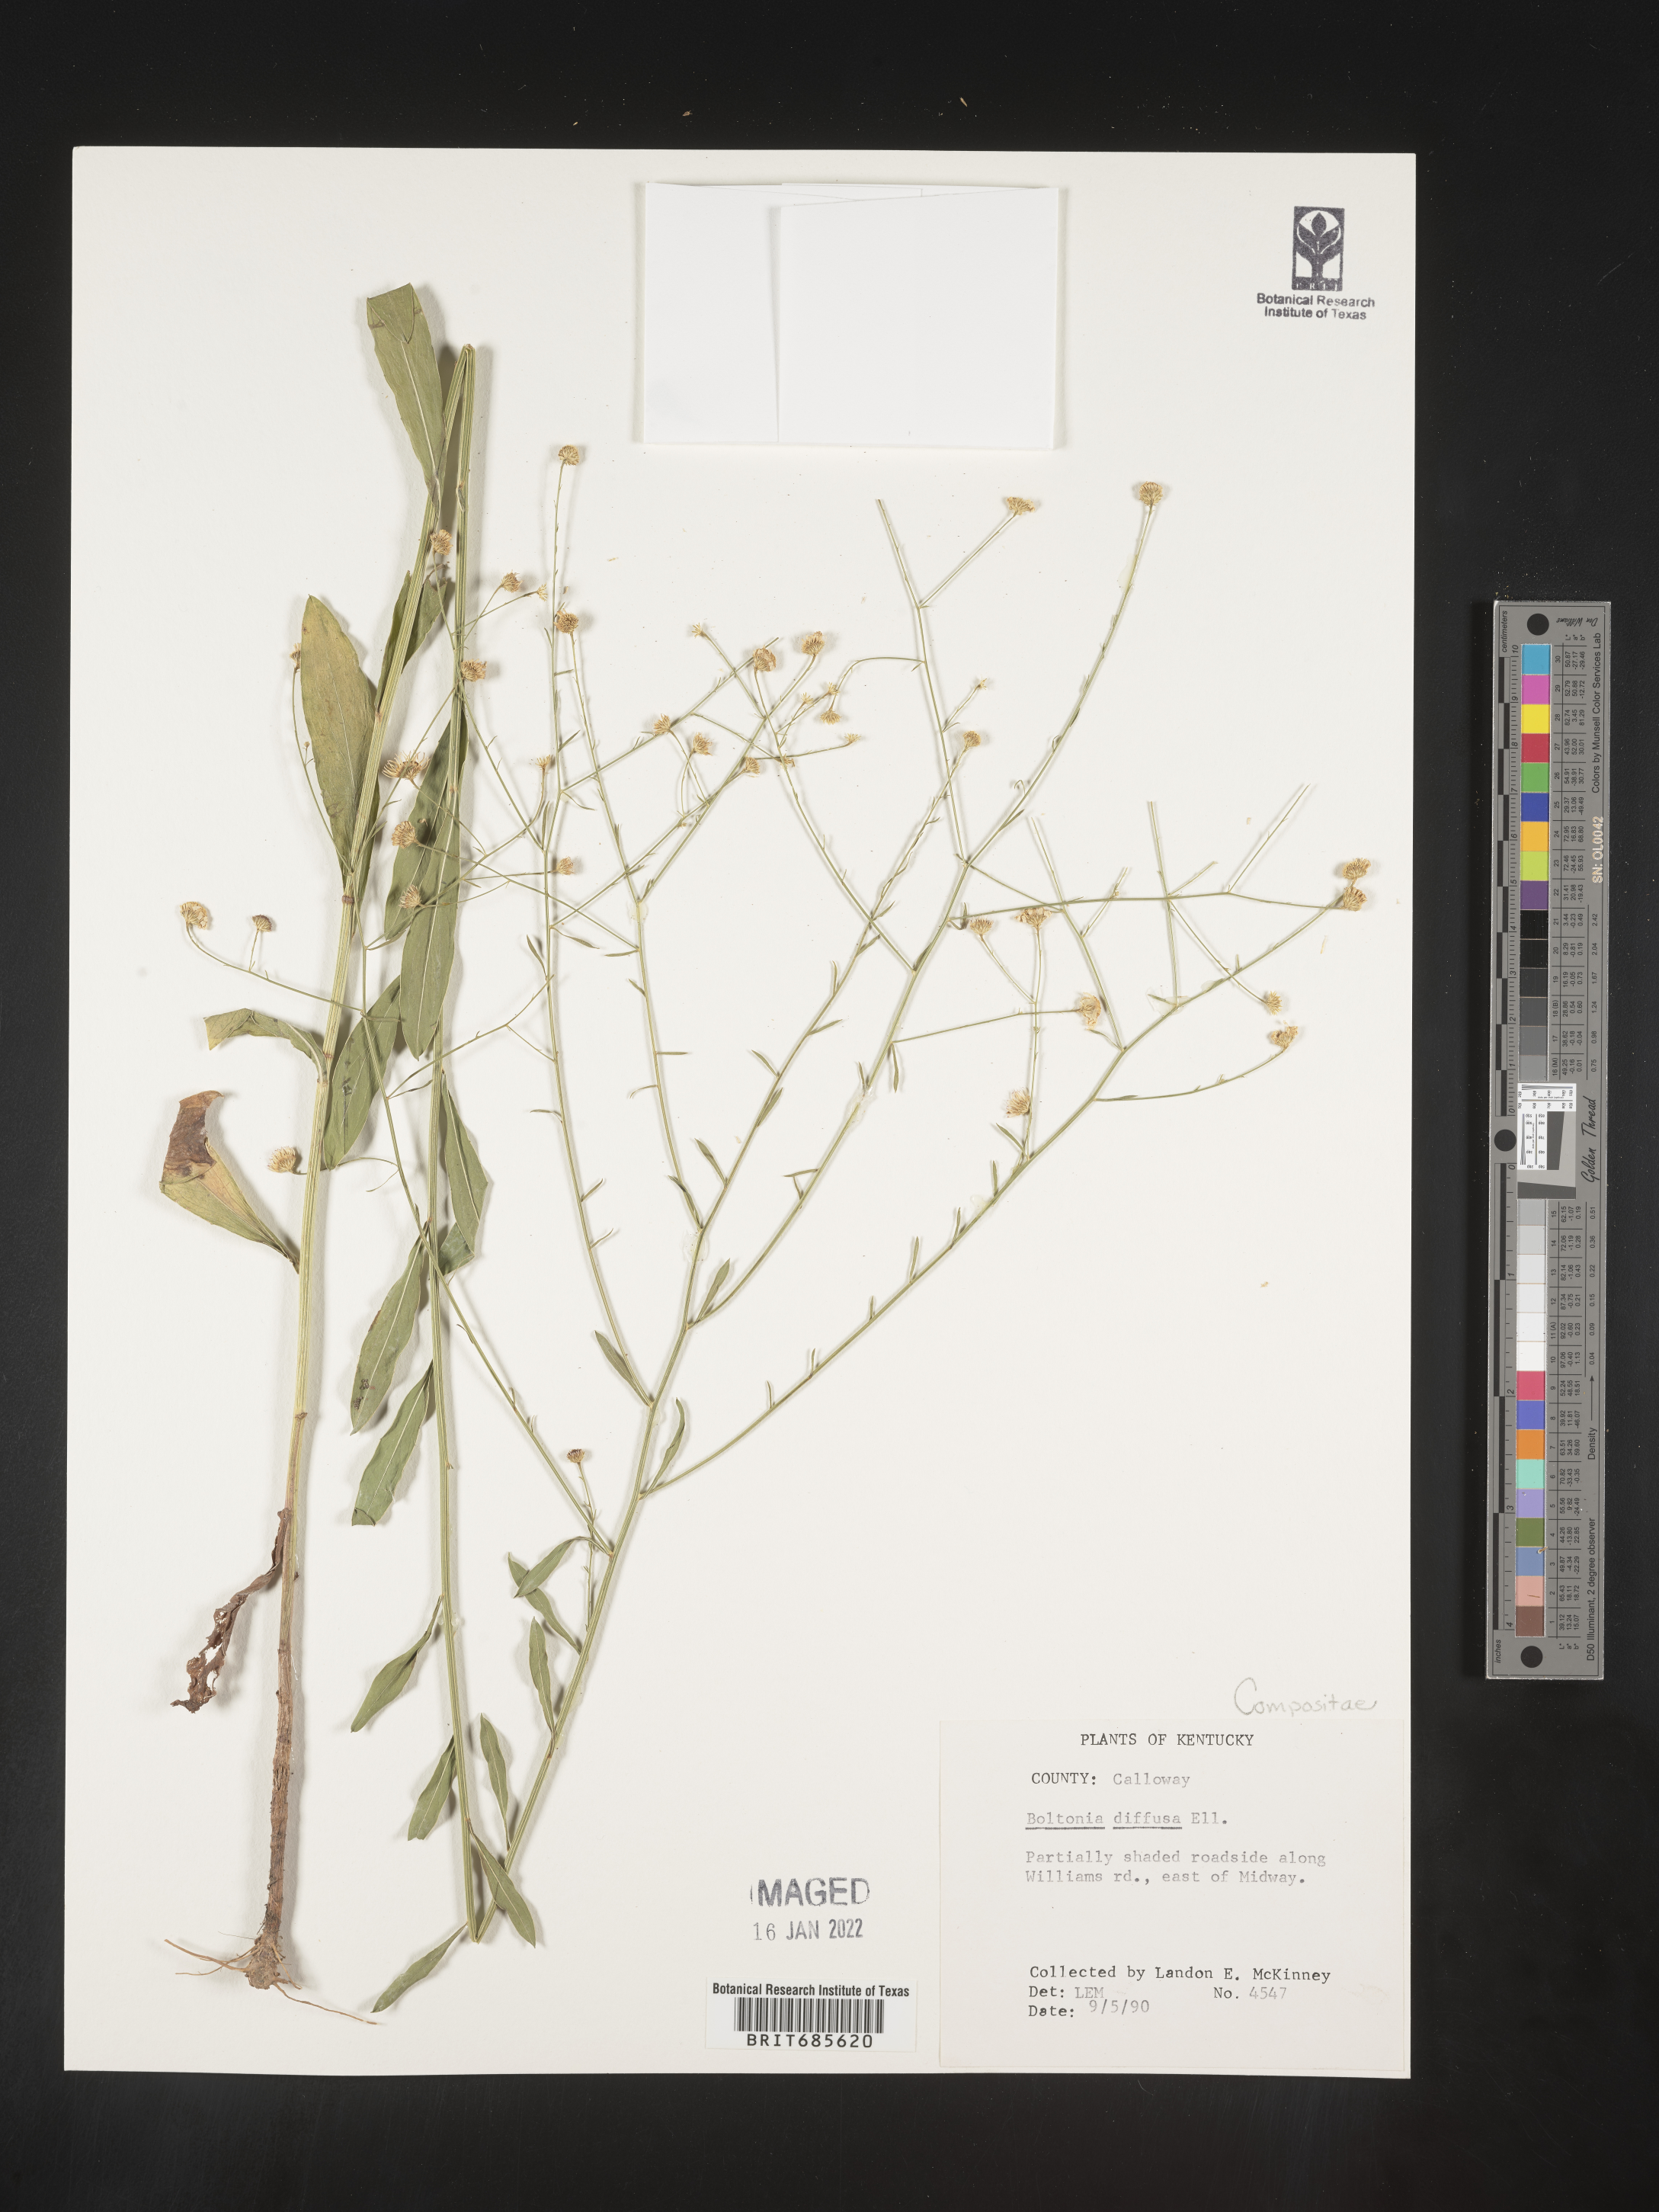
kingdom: Plantae
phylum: Tracheophyta
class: Magnoliopsida
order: Asterales
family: Asteraceae
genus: Boltonia
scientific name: Boltonia diffusa
